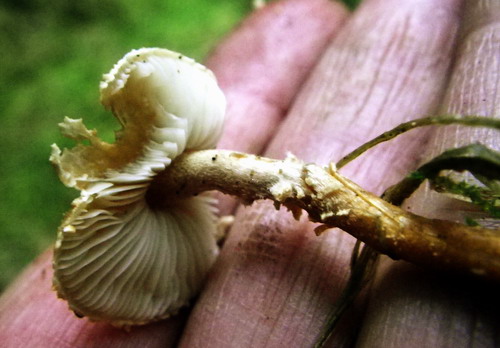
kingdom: Fungi
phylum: Basidiomycota
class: Agaricomycetes
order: Agaricales
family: Tricholomataceae
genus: Cystoderma
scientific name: Cystoderma amianthinum
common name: okkergul grynhat
